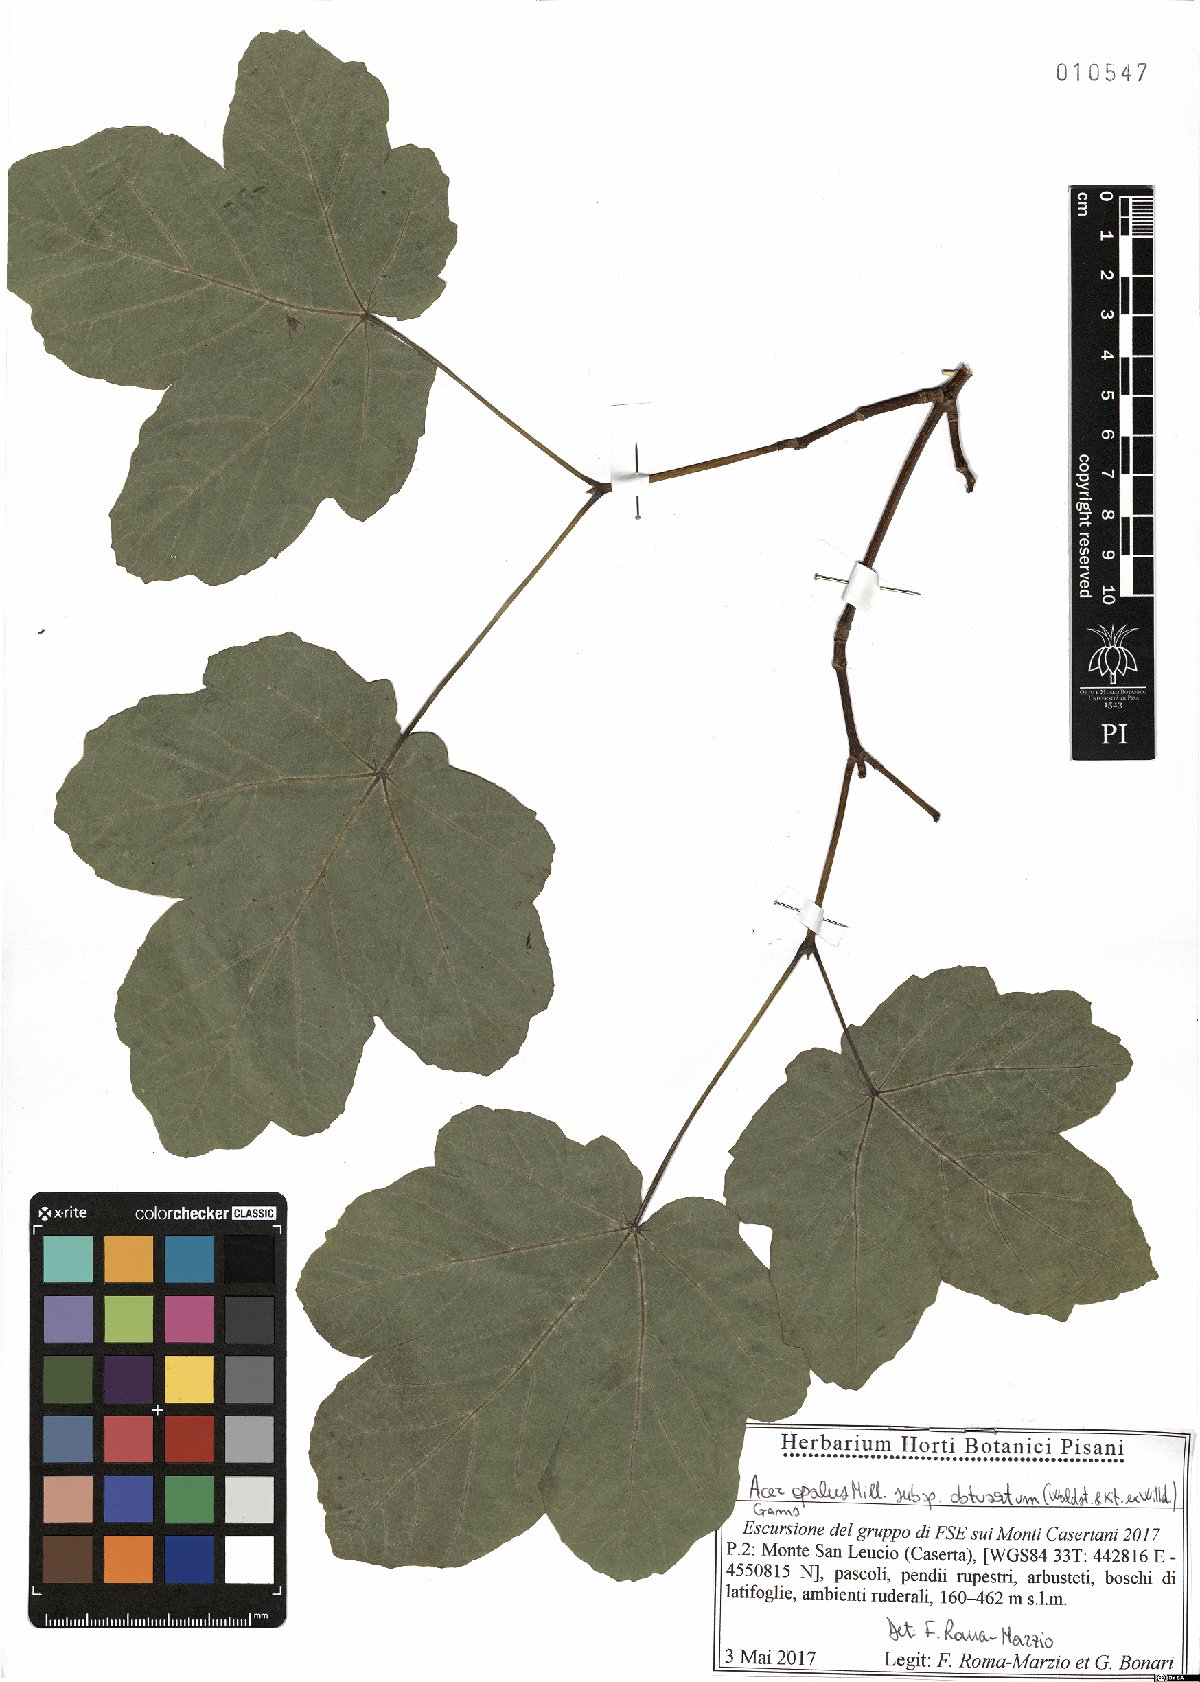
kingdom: Plantae
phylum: Tracheophyta
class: Magnoliopsida
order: Sapindales
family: Sapindaceae
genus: Acer
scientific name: Acer obtusatum
